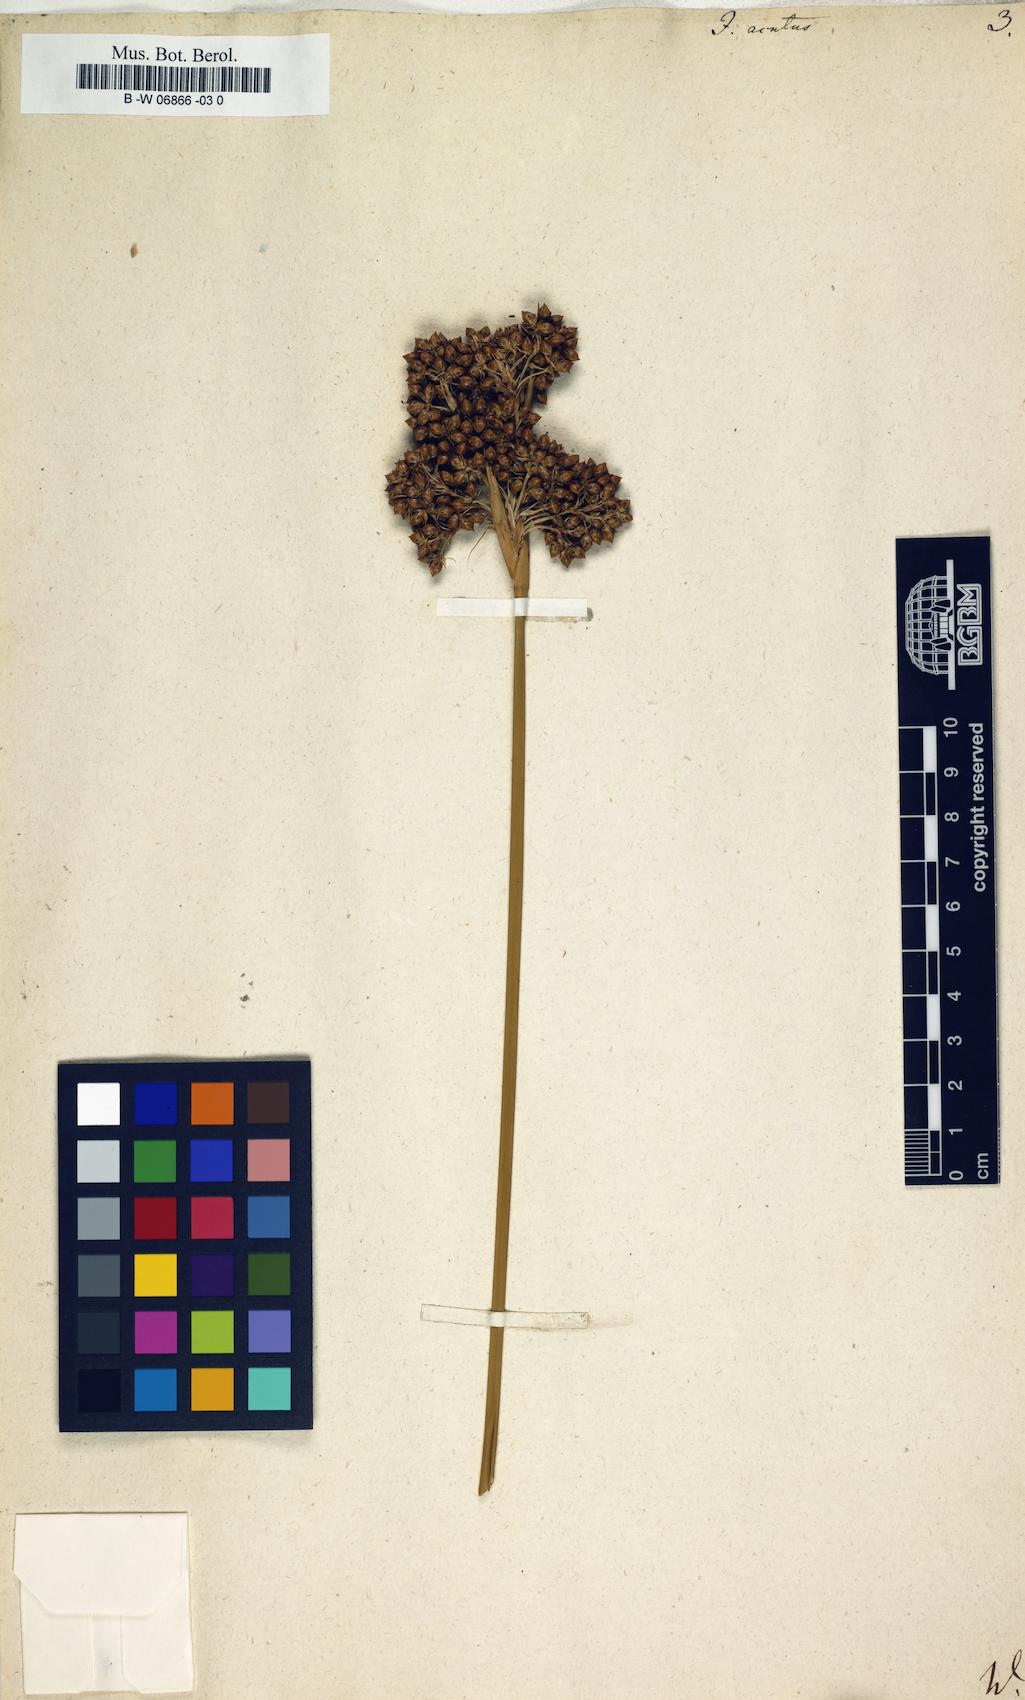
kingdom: Plantae
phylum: Tracheophyta
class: Liliopsida
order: Poales
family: Juncaceae
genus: Juncus
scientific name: Juncus acutus
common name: Sharp rush
